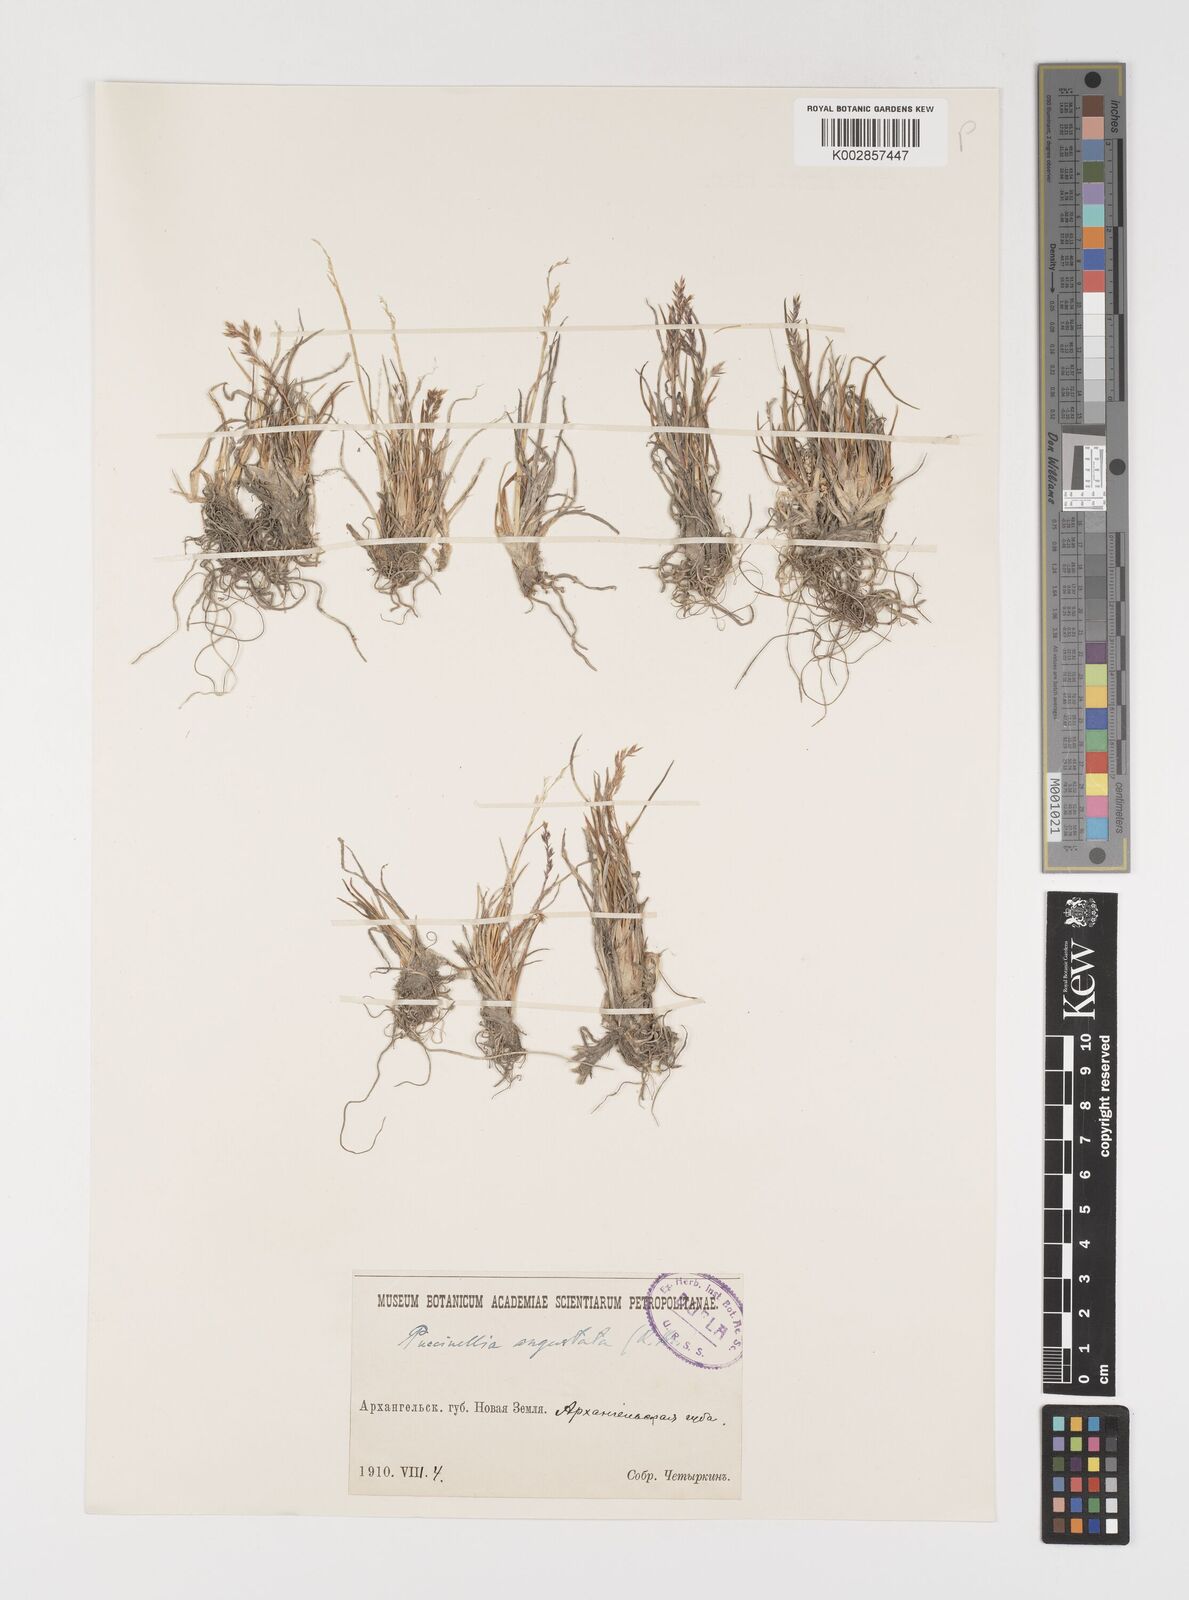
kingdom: Plantae
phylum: Tracheophyta
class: Liliopsida
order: Poales
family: Poaceae
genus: Puccinellia
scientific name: Puccinellia angusta
